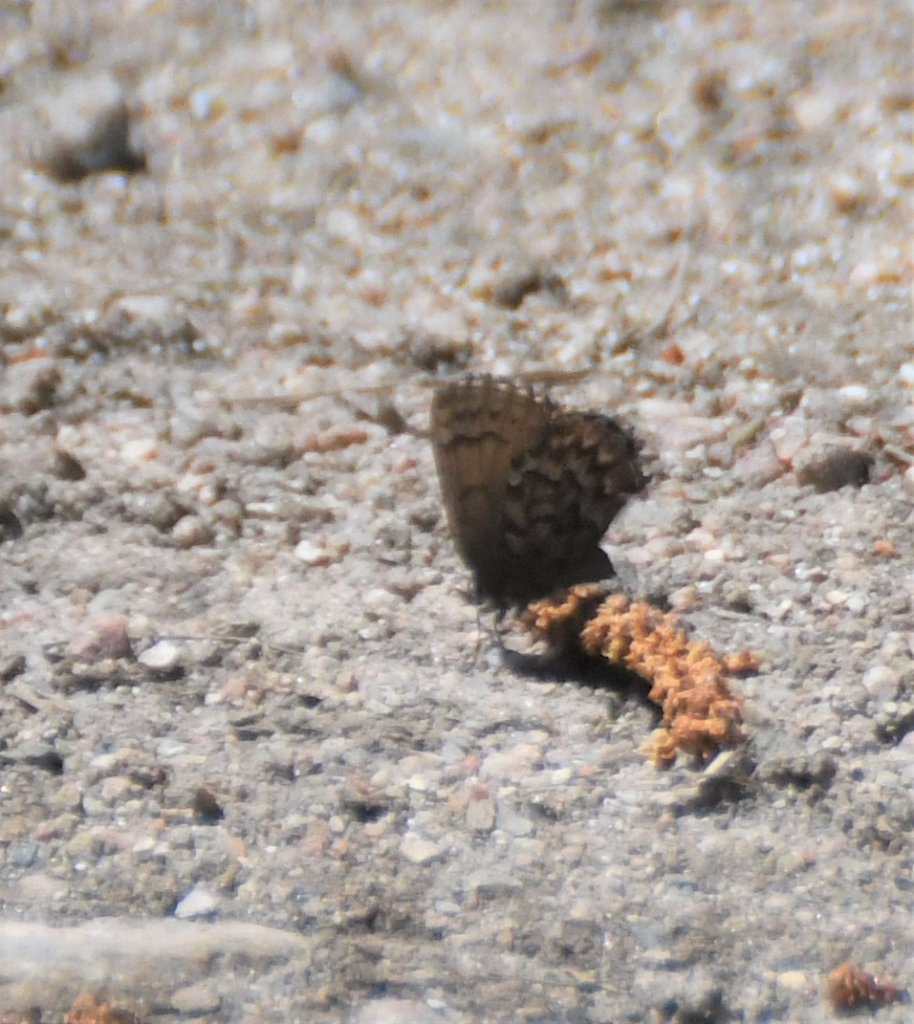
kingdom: Animalia
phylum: Arthropoda
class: Insecta
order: Lepidoptera
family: Lycaenidae
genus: Incisalia
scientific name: Incisalia eryphon
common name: Western Pine Elfin
